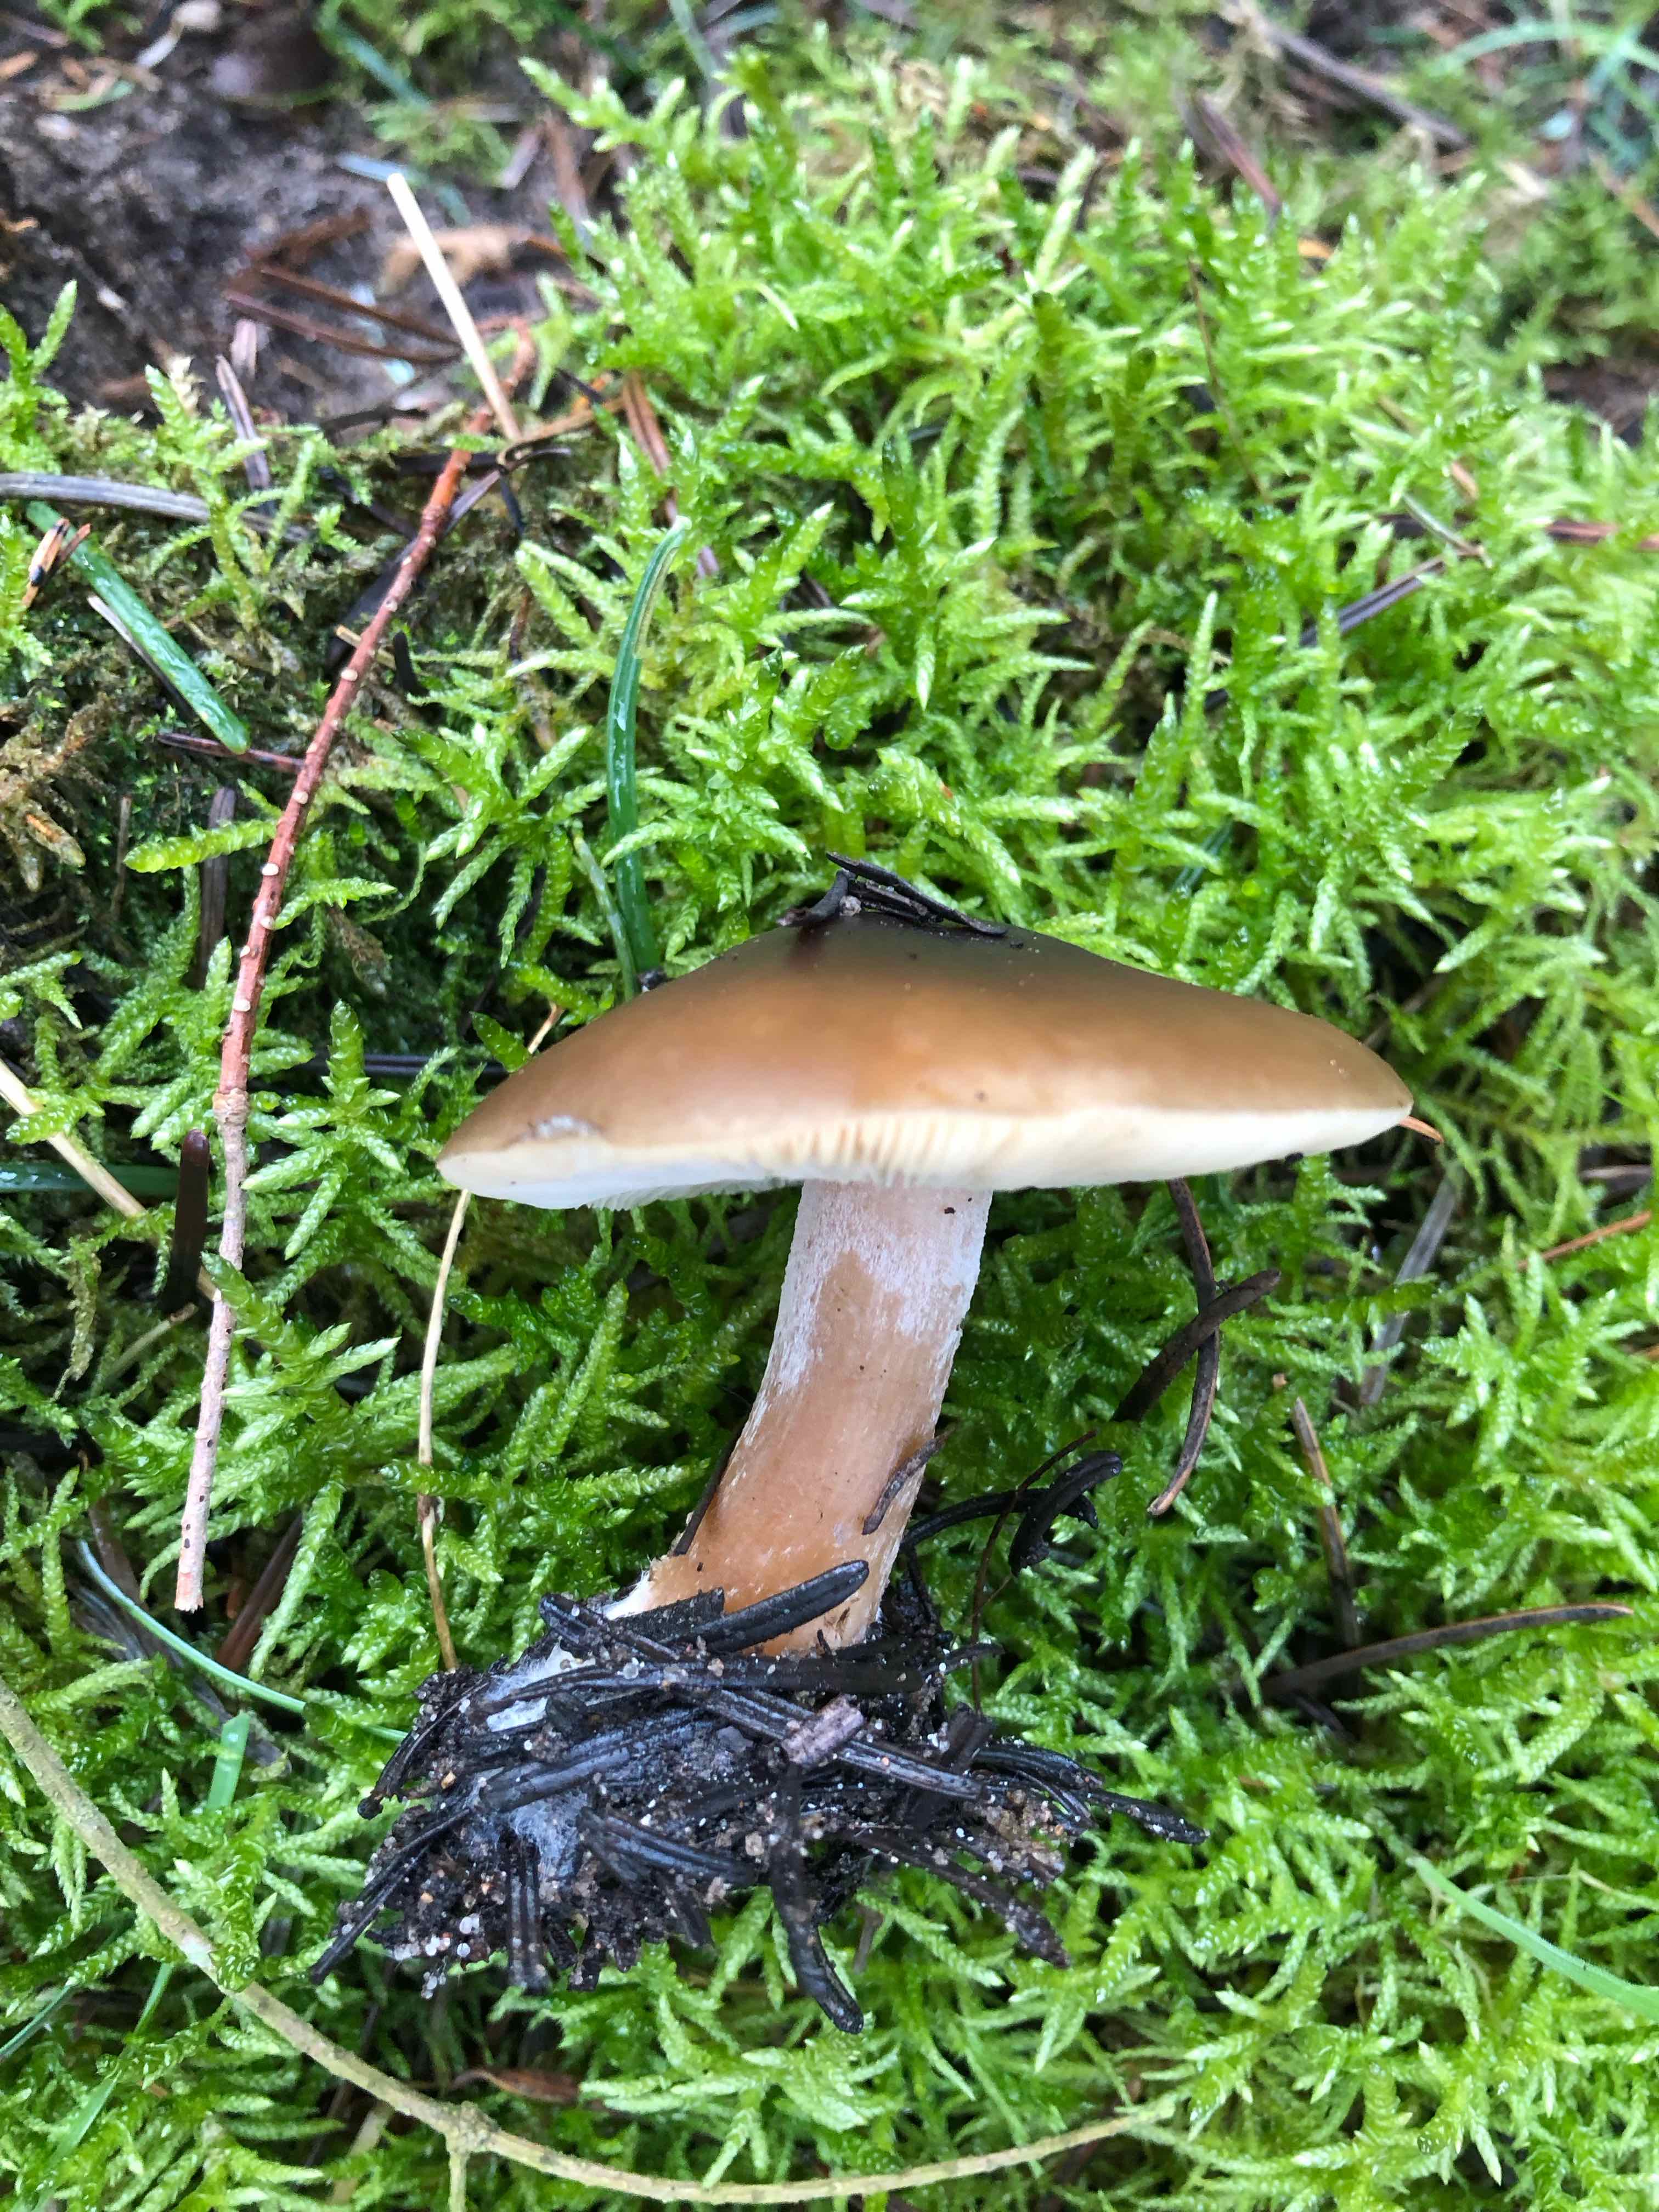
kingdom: Fungi
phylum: Basidiomycota
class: Agaricomycetes
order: Agaricales
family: Tricholomataceae
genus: Melanoleuca
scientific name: Melanoleuca cognata
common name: gyldengrå munkehat
